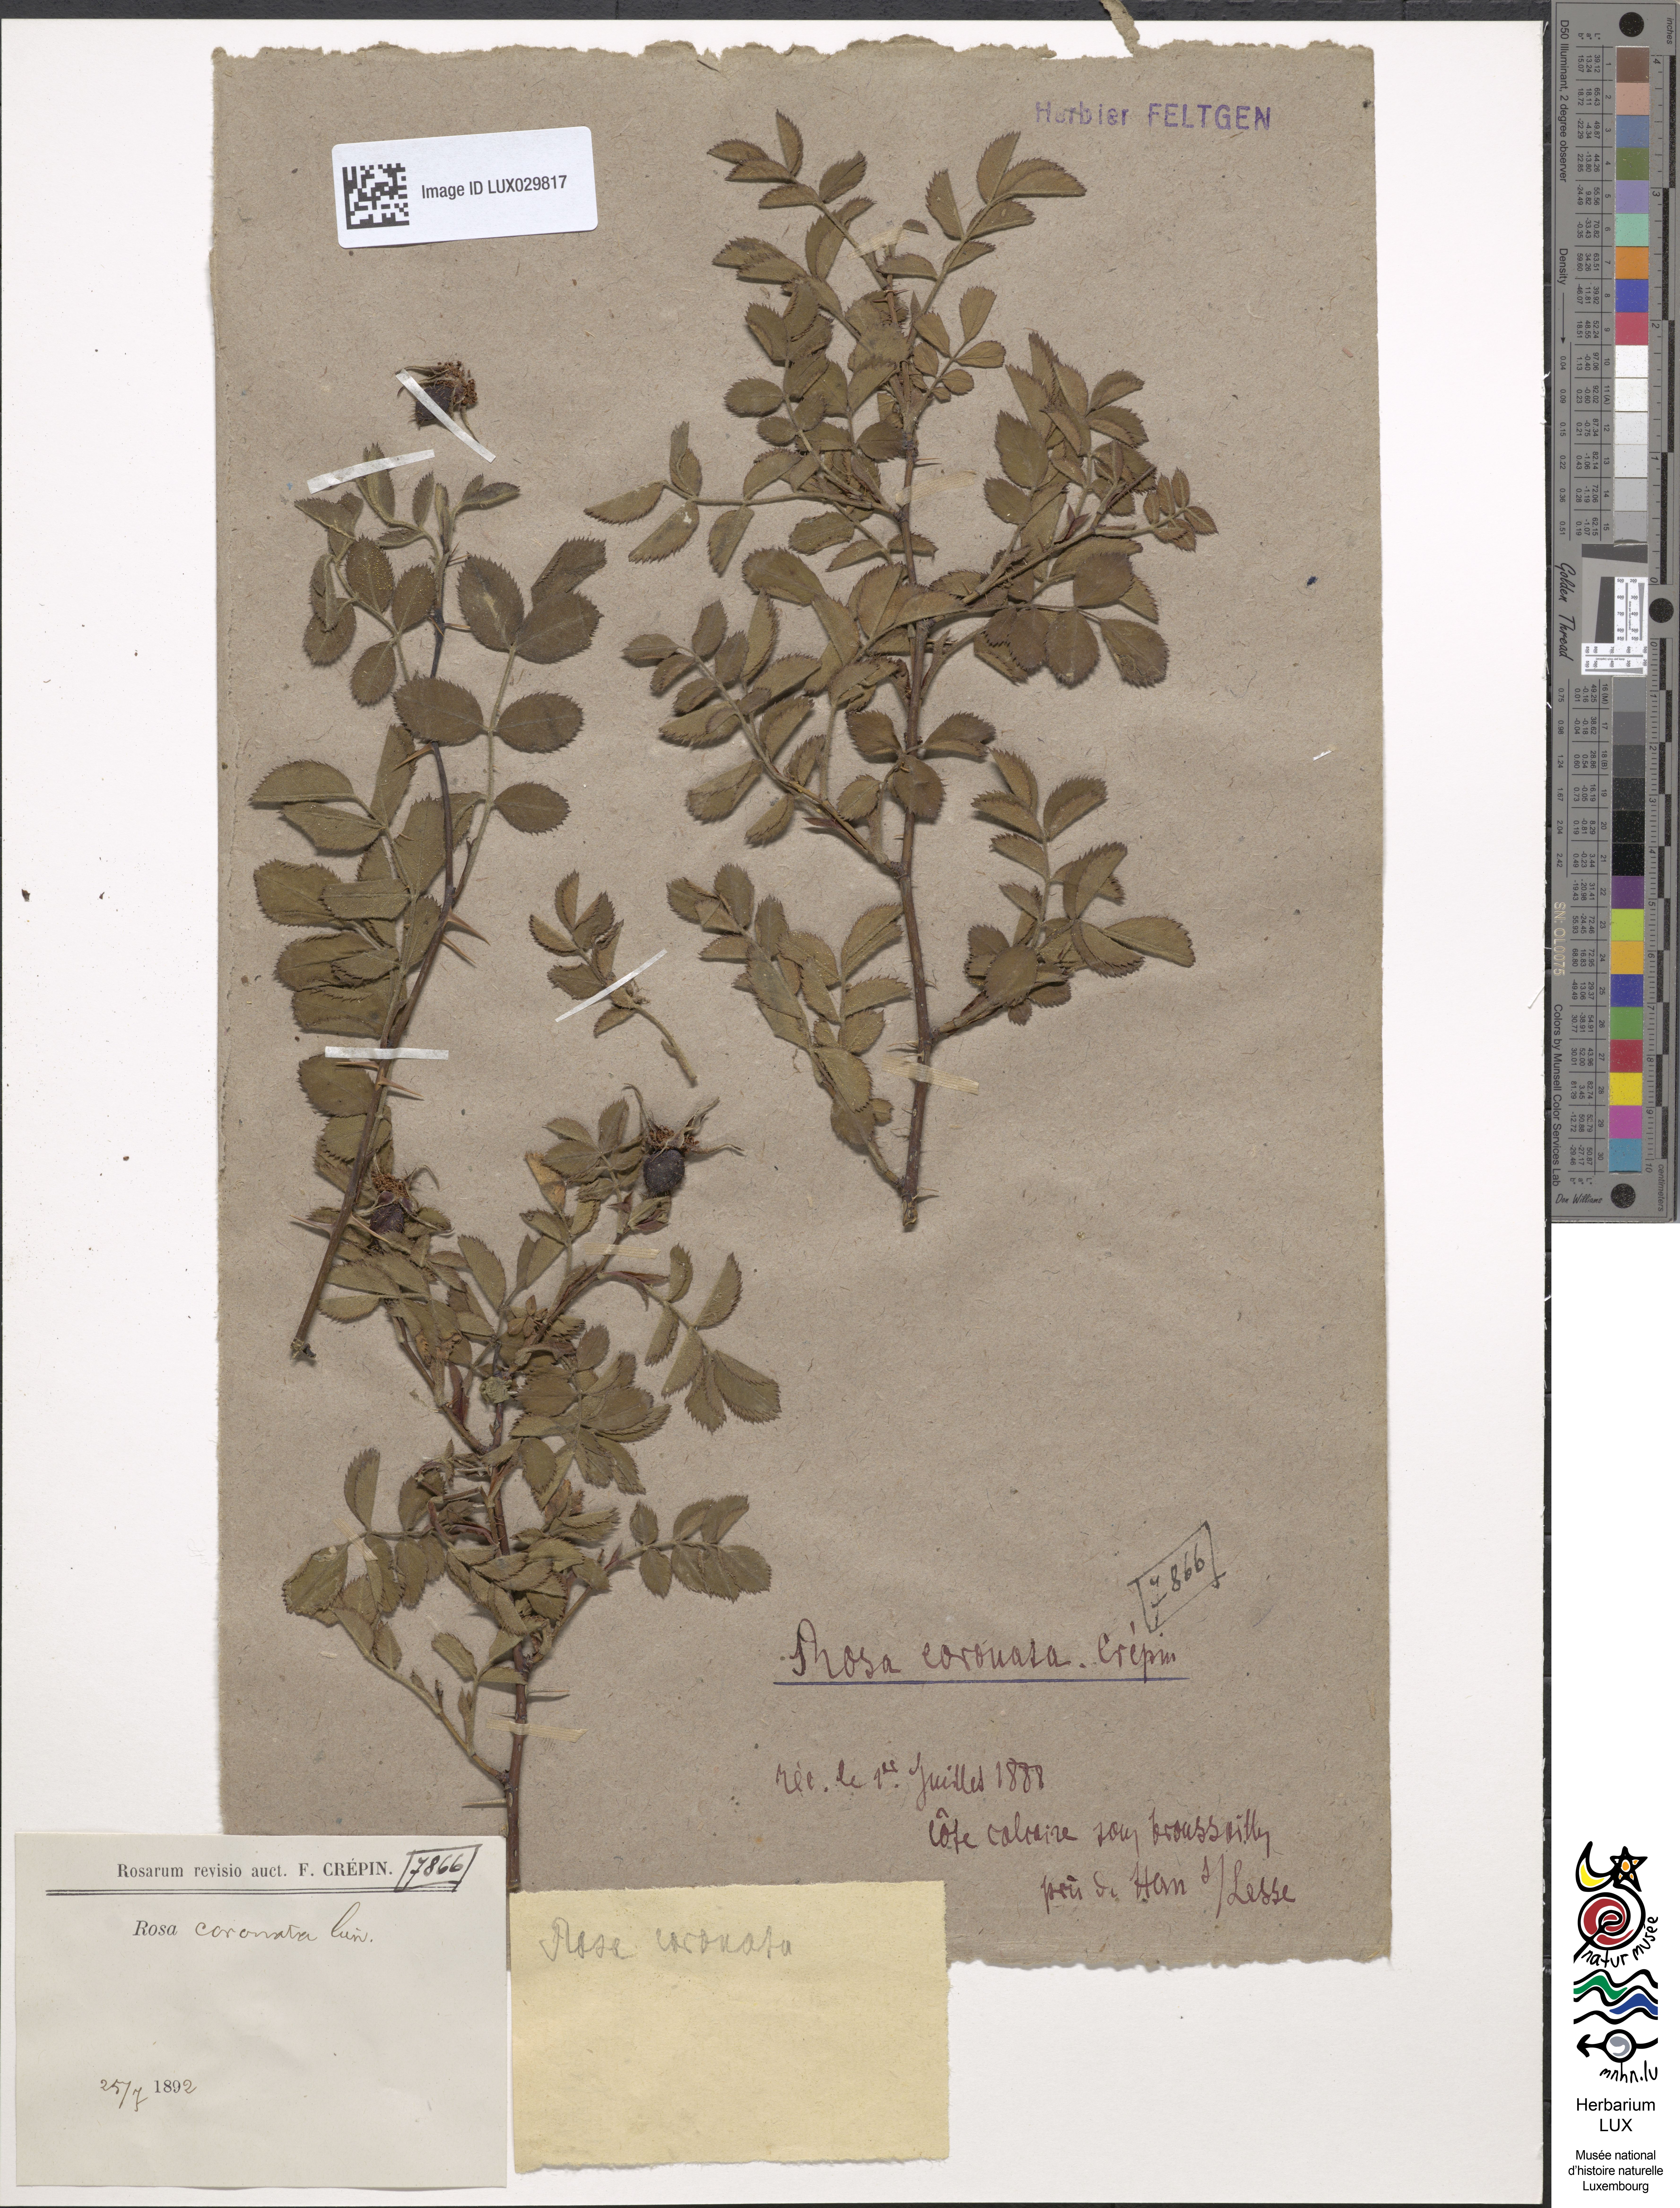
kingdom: Plantae
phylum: Tracheophyta
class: Magnoliopsida
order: Rosales
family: Rosaceae
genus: Rosa
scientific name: Rosa coronata
